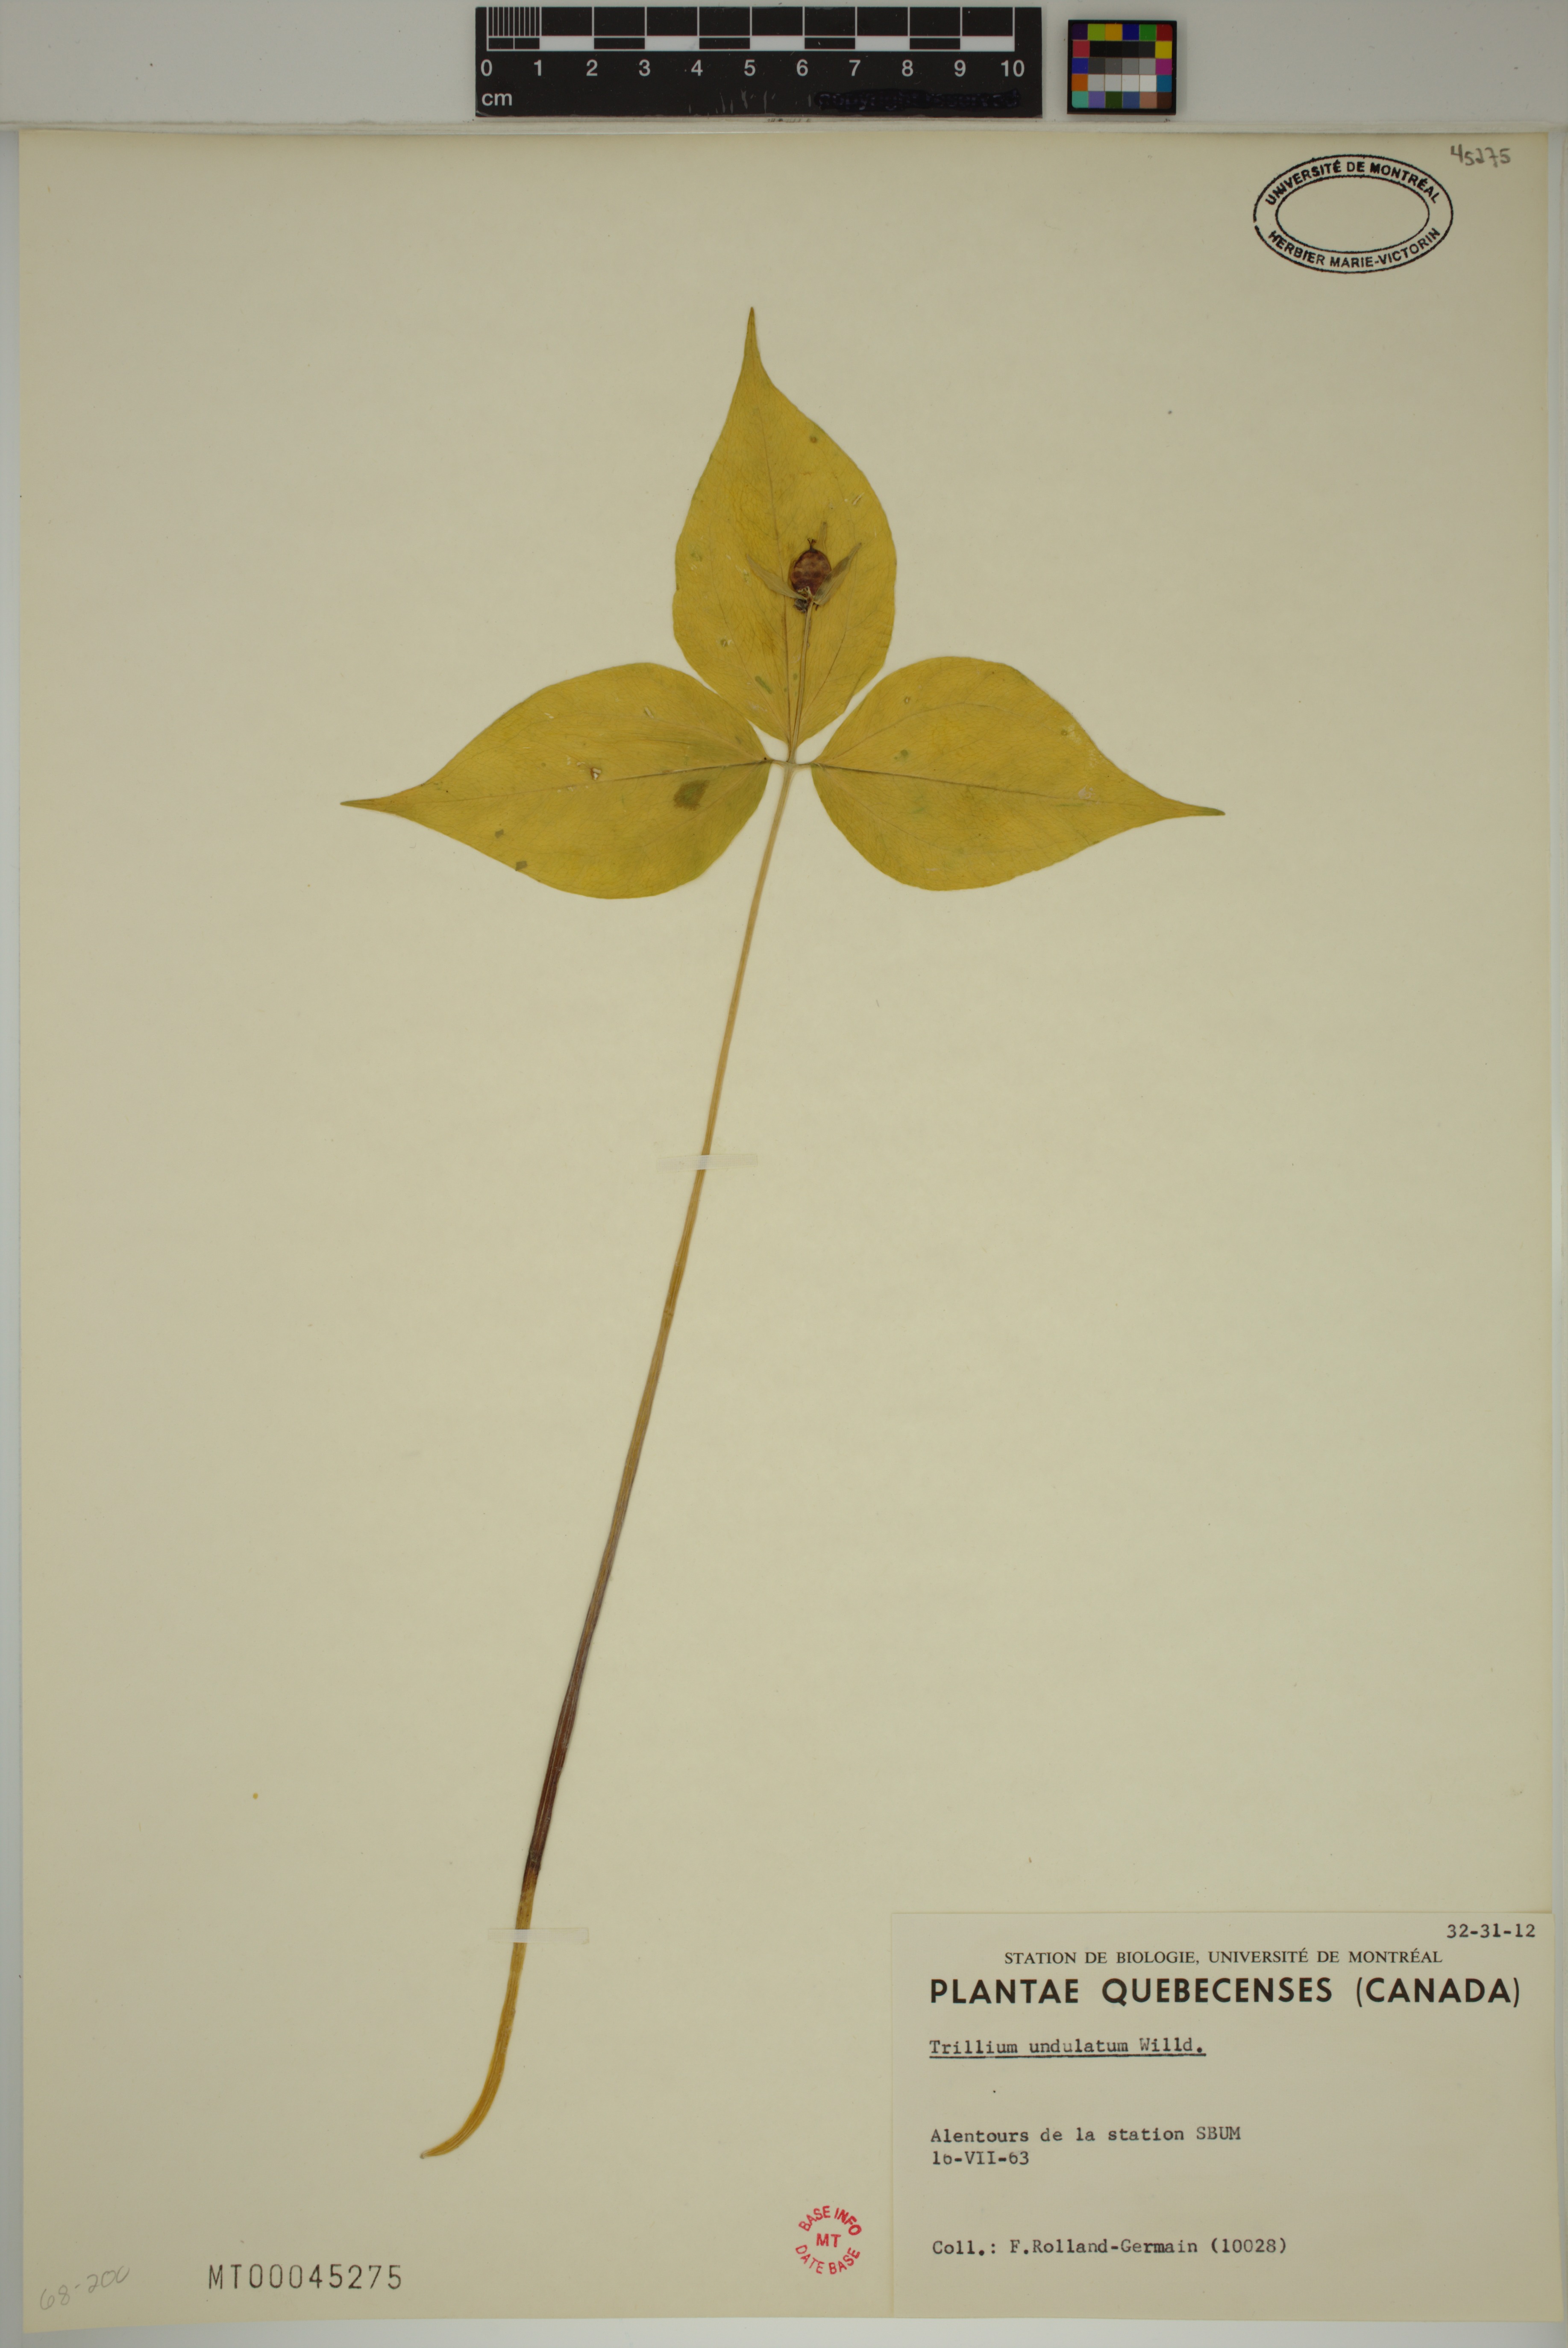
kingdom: Plantae
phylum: Tracheophyta
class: Liliopsida
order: Liliales
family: Melanthiaceae
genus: Trillium
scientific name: Trillium undulatum
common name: Paint trillium
